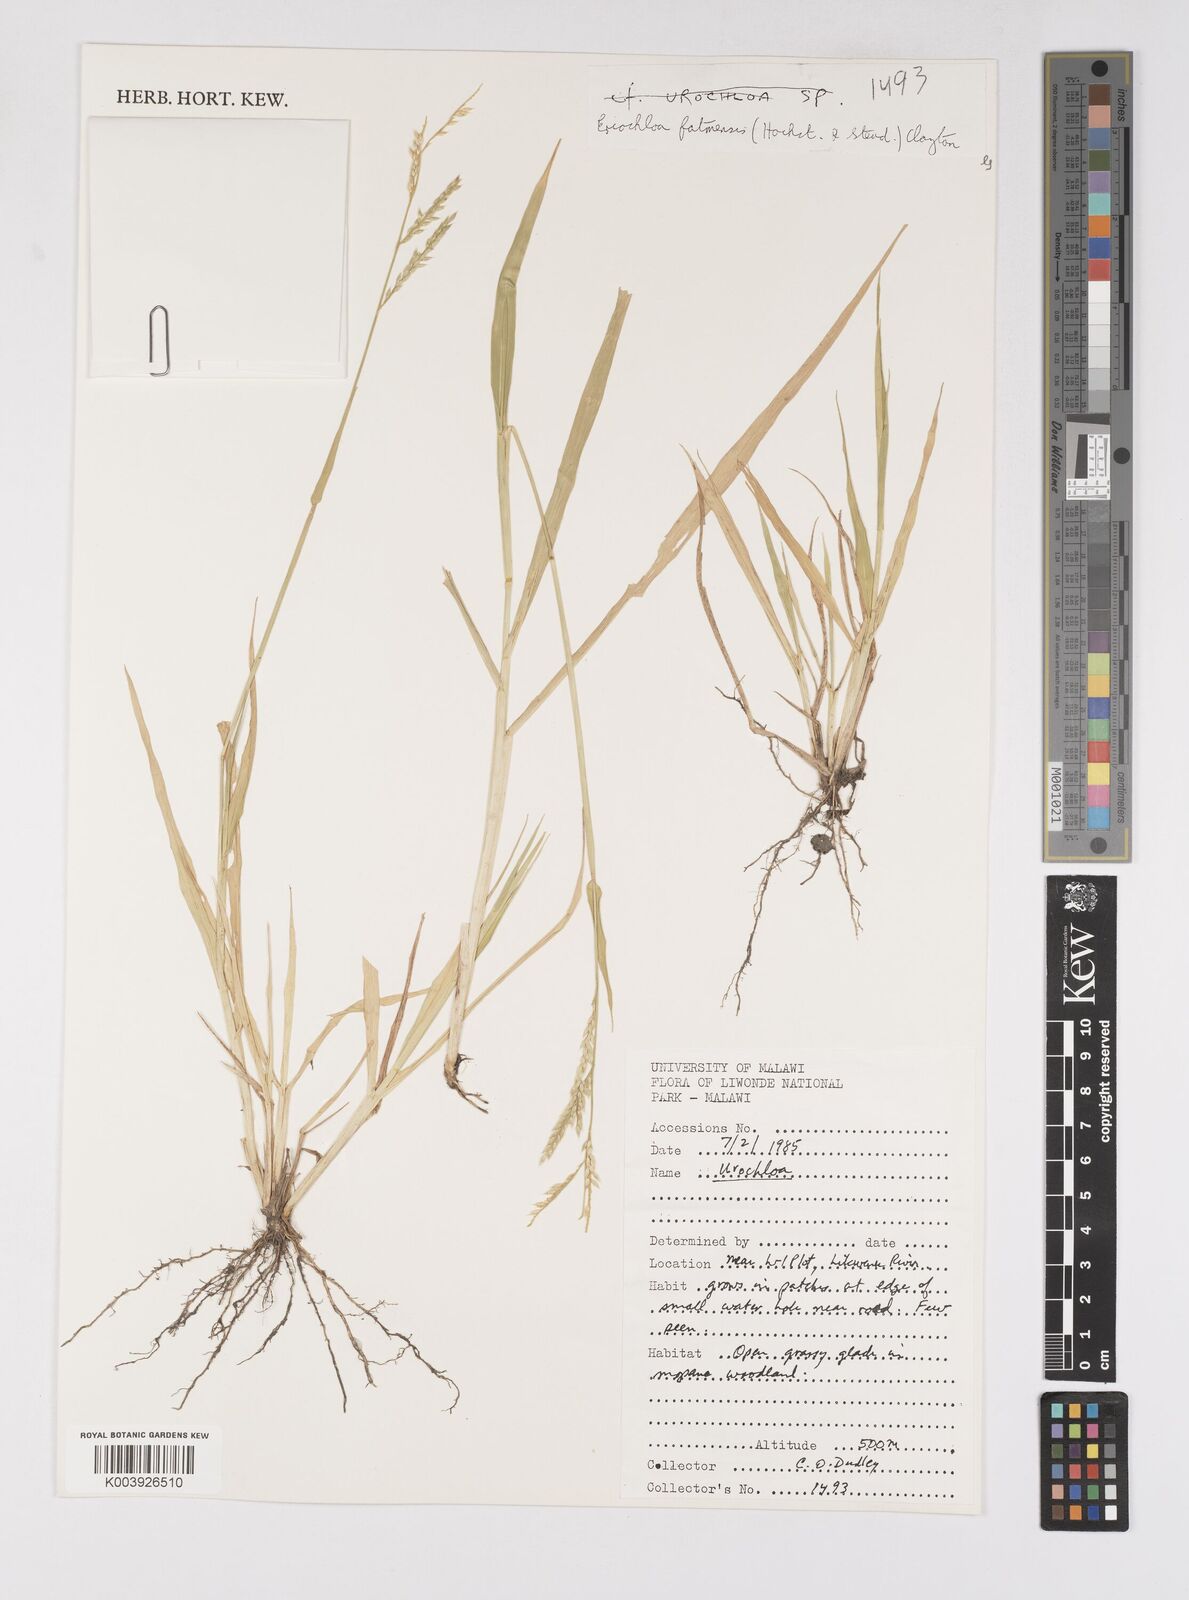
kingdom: Plantae
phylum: Tracheophyta
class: Liliopsida
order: Poales
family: Poaceae
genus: Eriochloa
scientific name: Eriochloa barbatus
